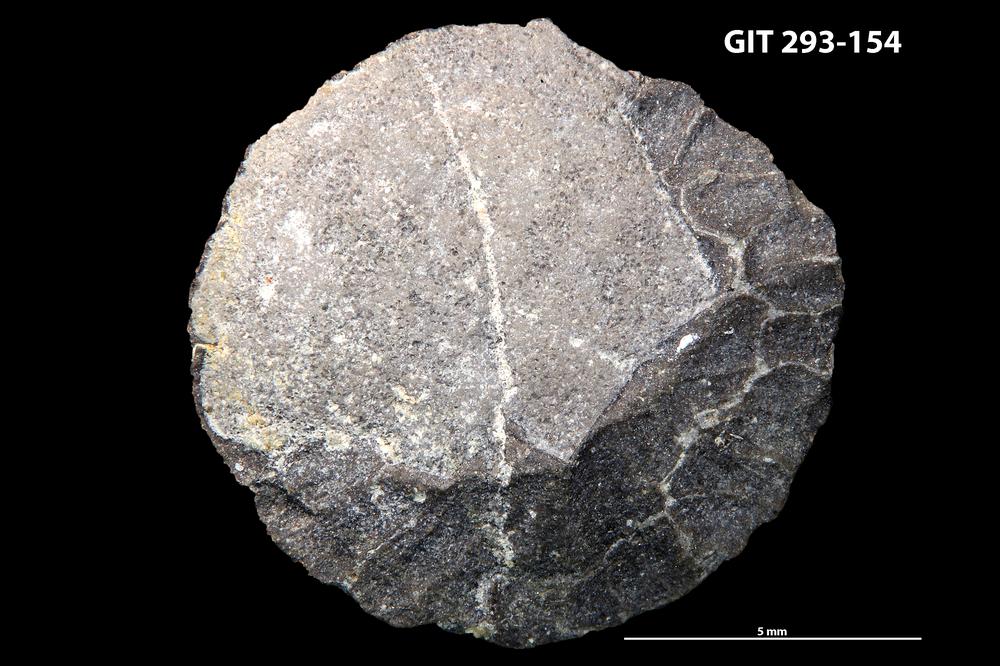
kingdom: Animalia
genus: Estoniadiscus
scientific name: Estoniadiscus
